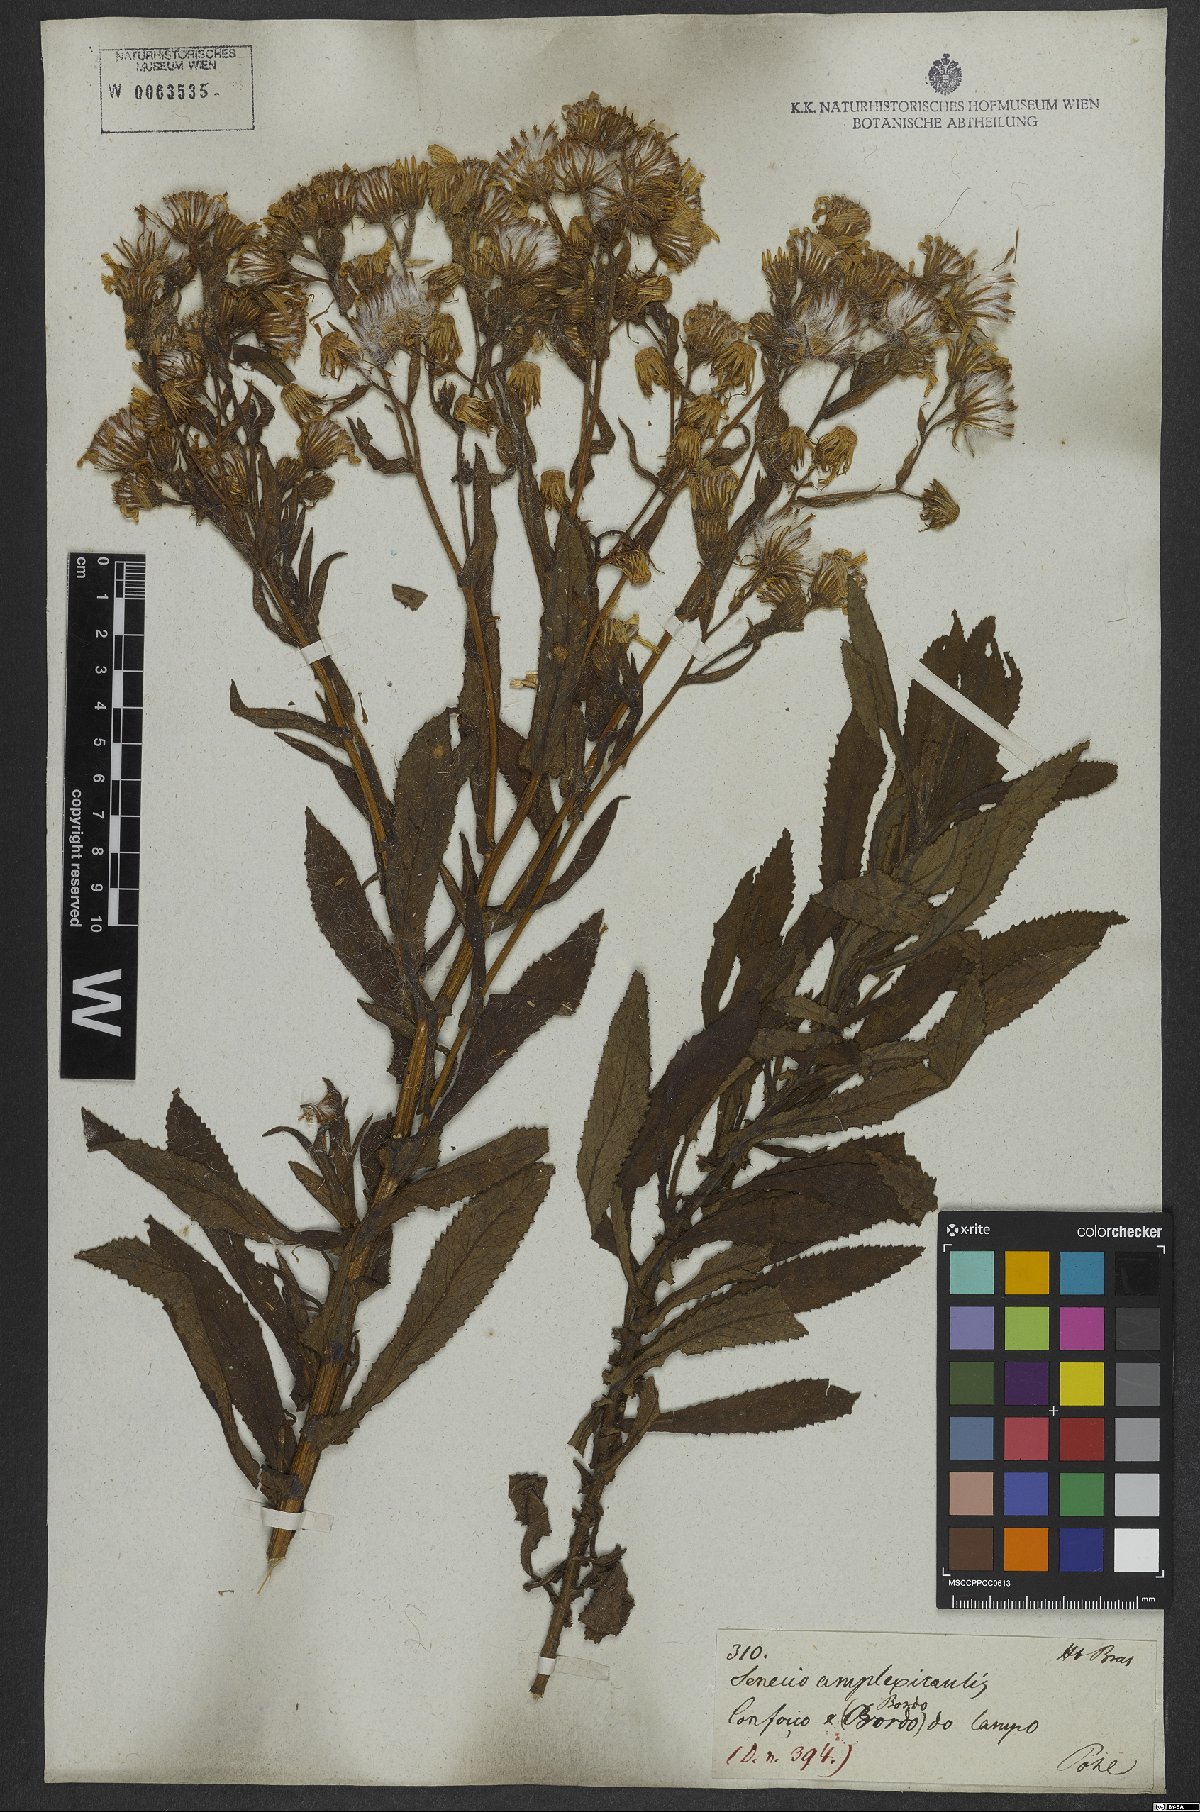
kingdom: Plantae
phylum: Tracheophyta
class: Magnoliopsida
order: Asterales
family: Asteraceae
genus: Dendrophorbium
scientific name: Dendrophorbium amplexicaule
